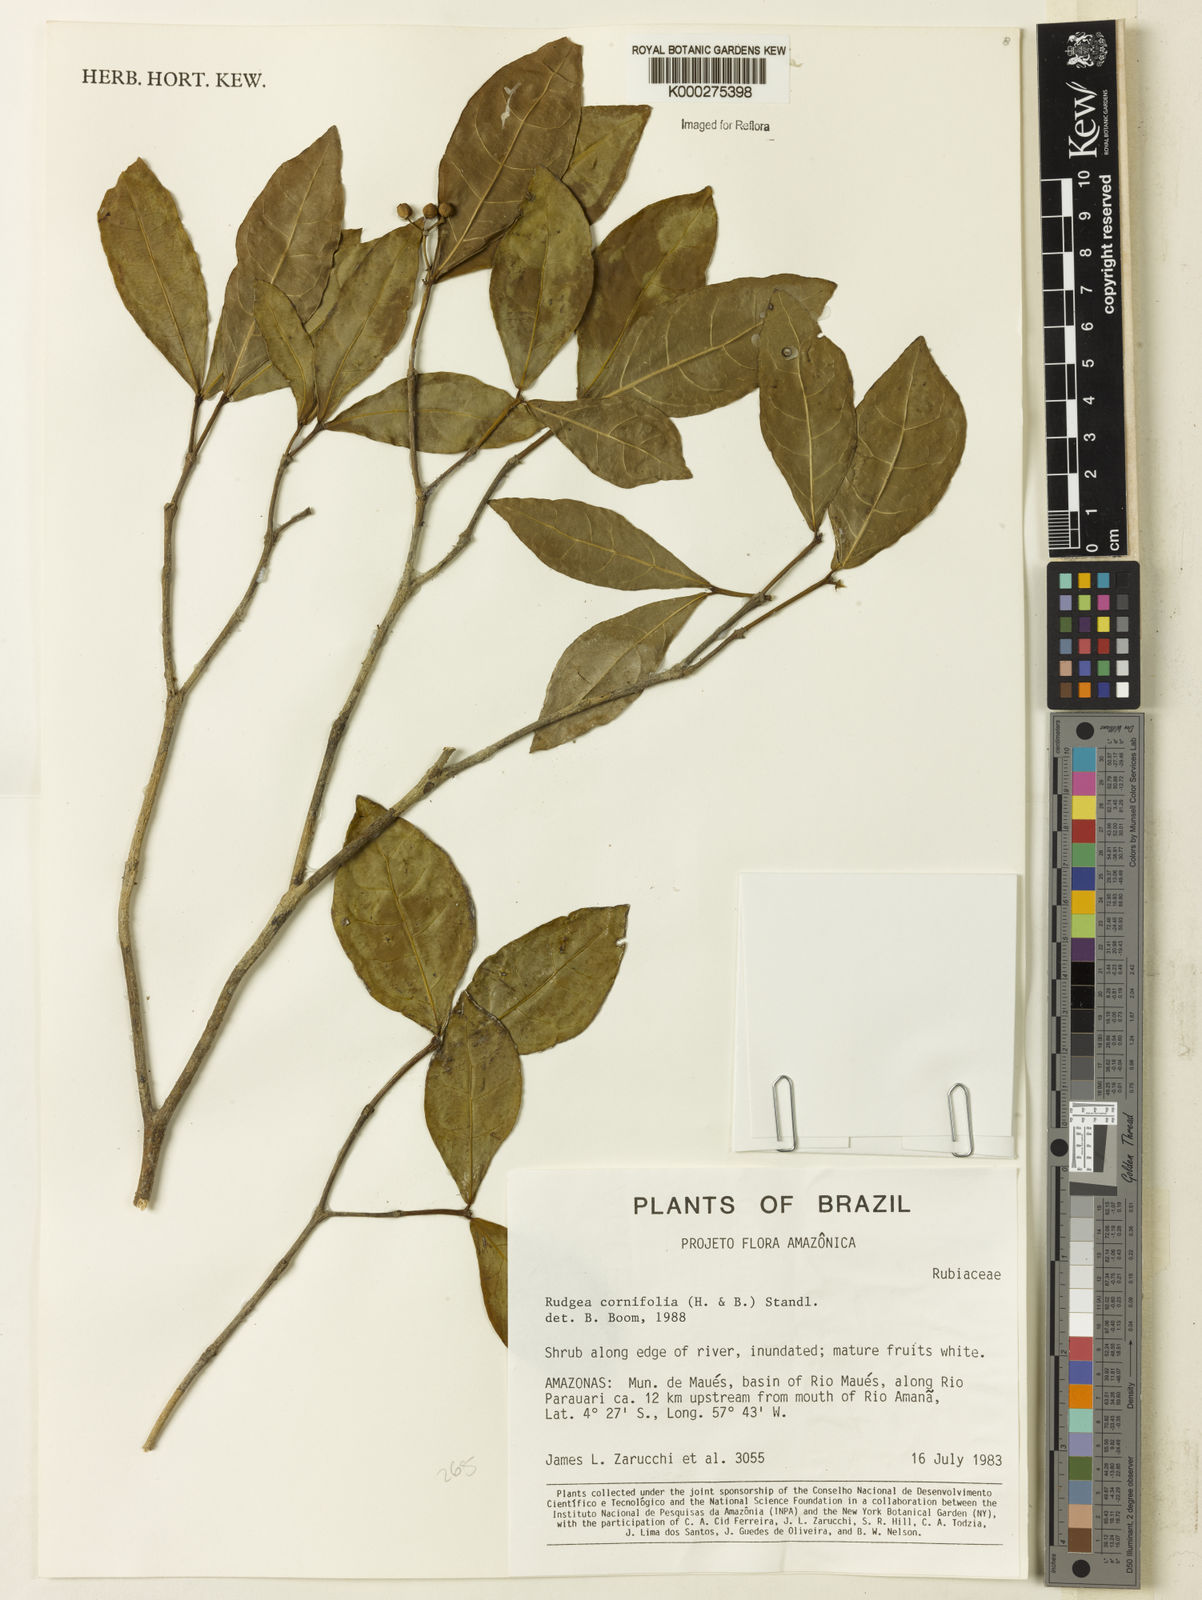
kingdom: Plantae
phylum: Tracheophyta
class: Magnoliopsida
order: Gentianales
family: Rubiaceae
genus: Rudgea
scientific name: Rudgea cornifolia
